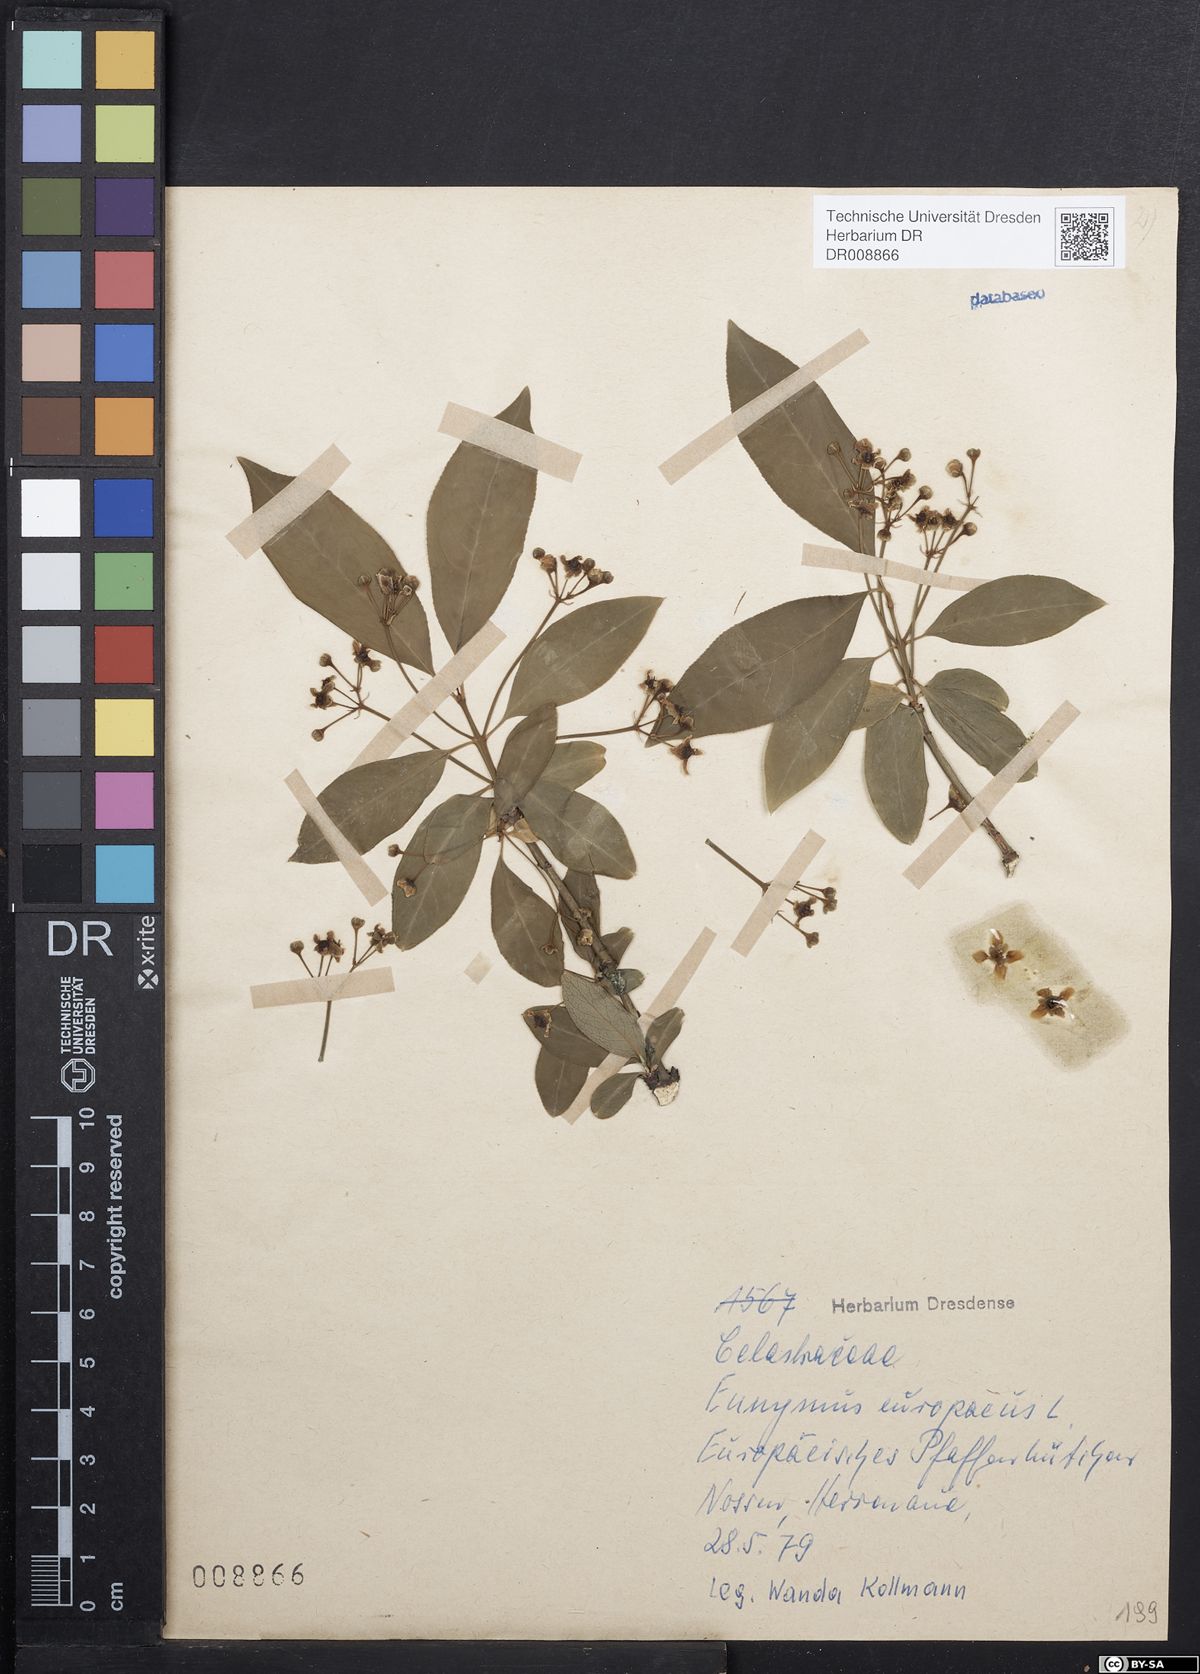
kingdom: Plantae
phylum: Tracheophyta
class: Magnoliopsida
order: Rosales
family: Rhamnaceae
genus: Frangula
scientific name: Frangula alnus
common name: Alder buckthorn
